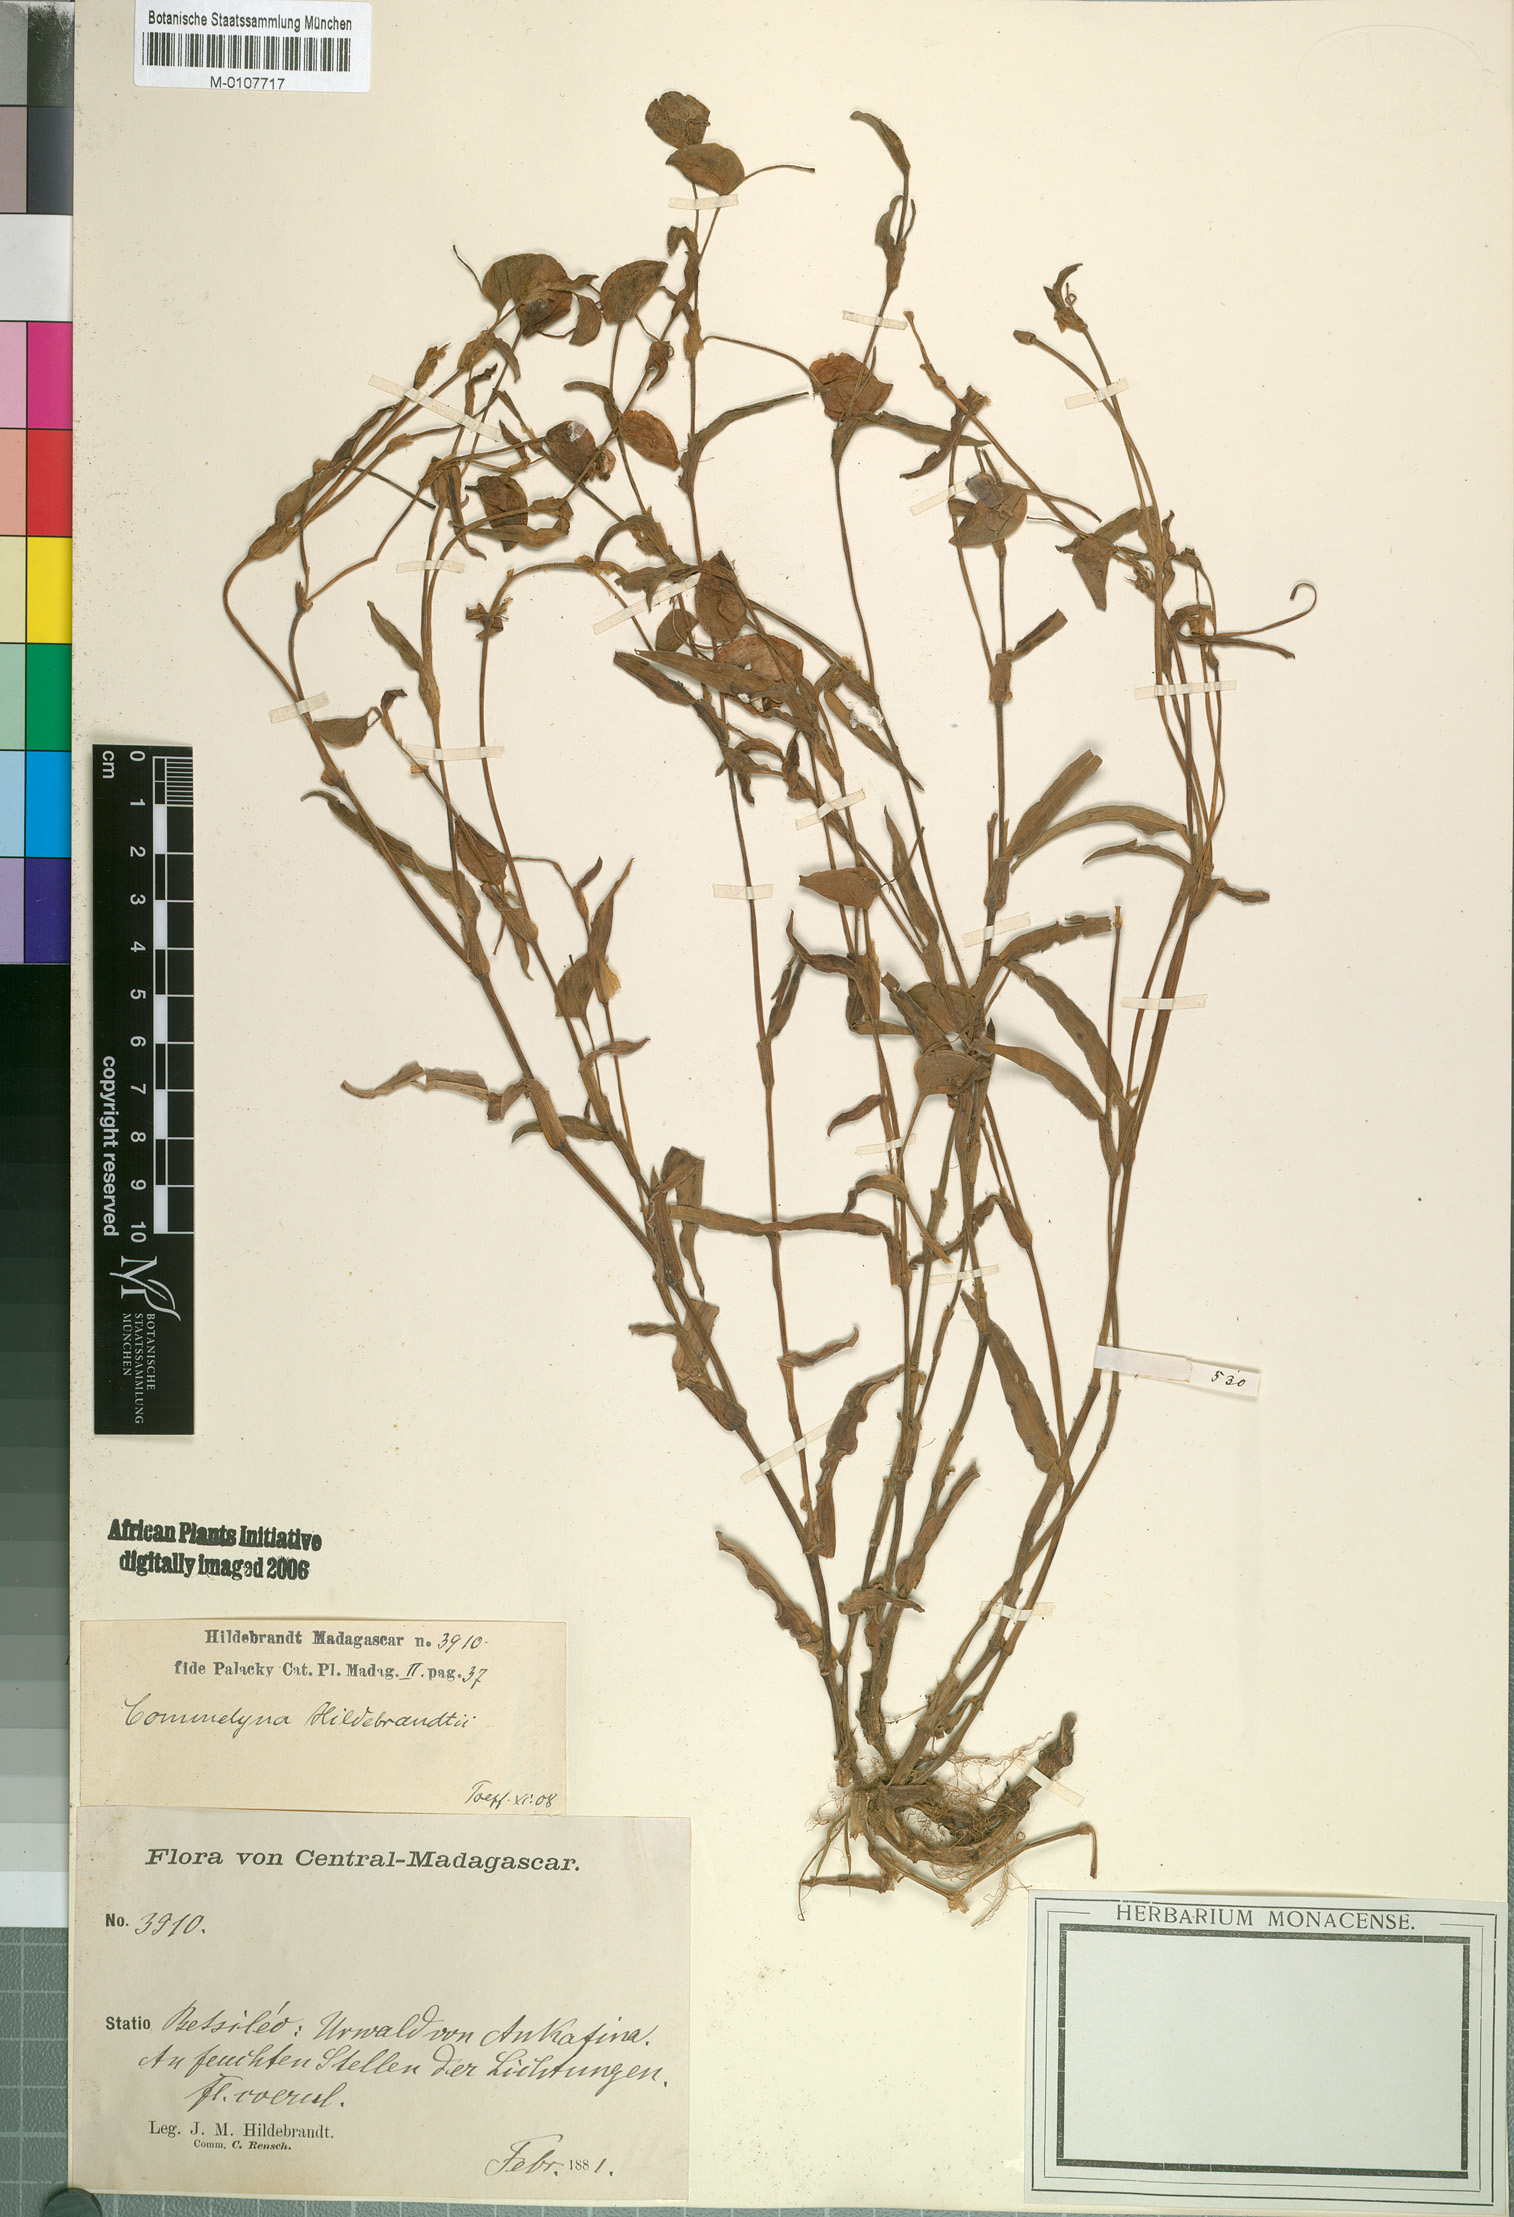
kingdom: Plantae
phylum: Tracheophyta
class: Liliopsida
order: Commelinales
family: Commelinaceae
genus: Commelina
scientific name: Commelina
